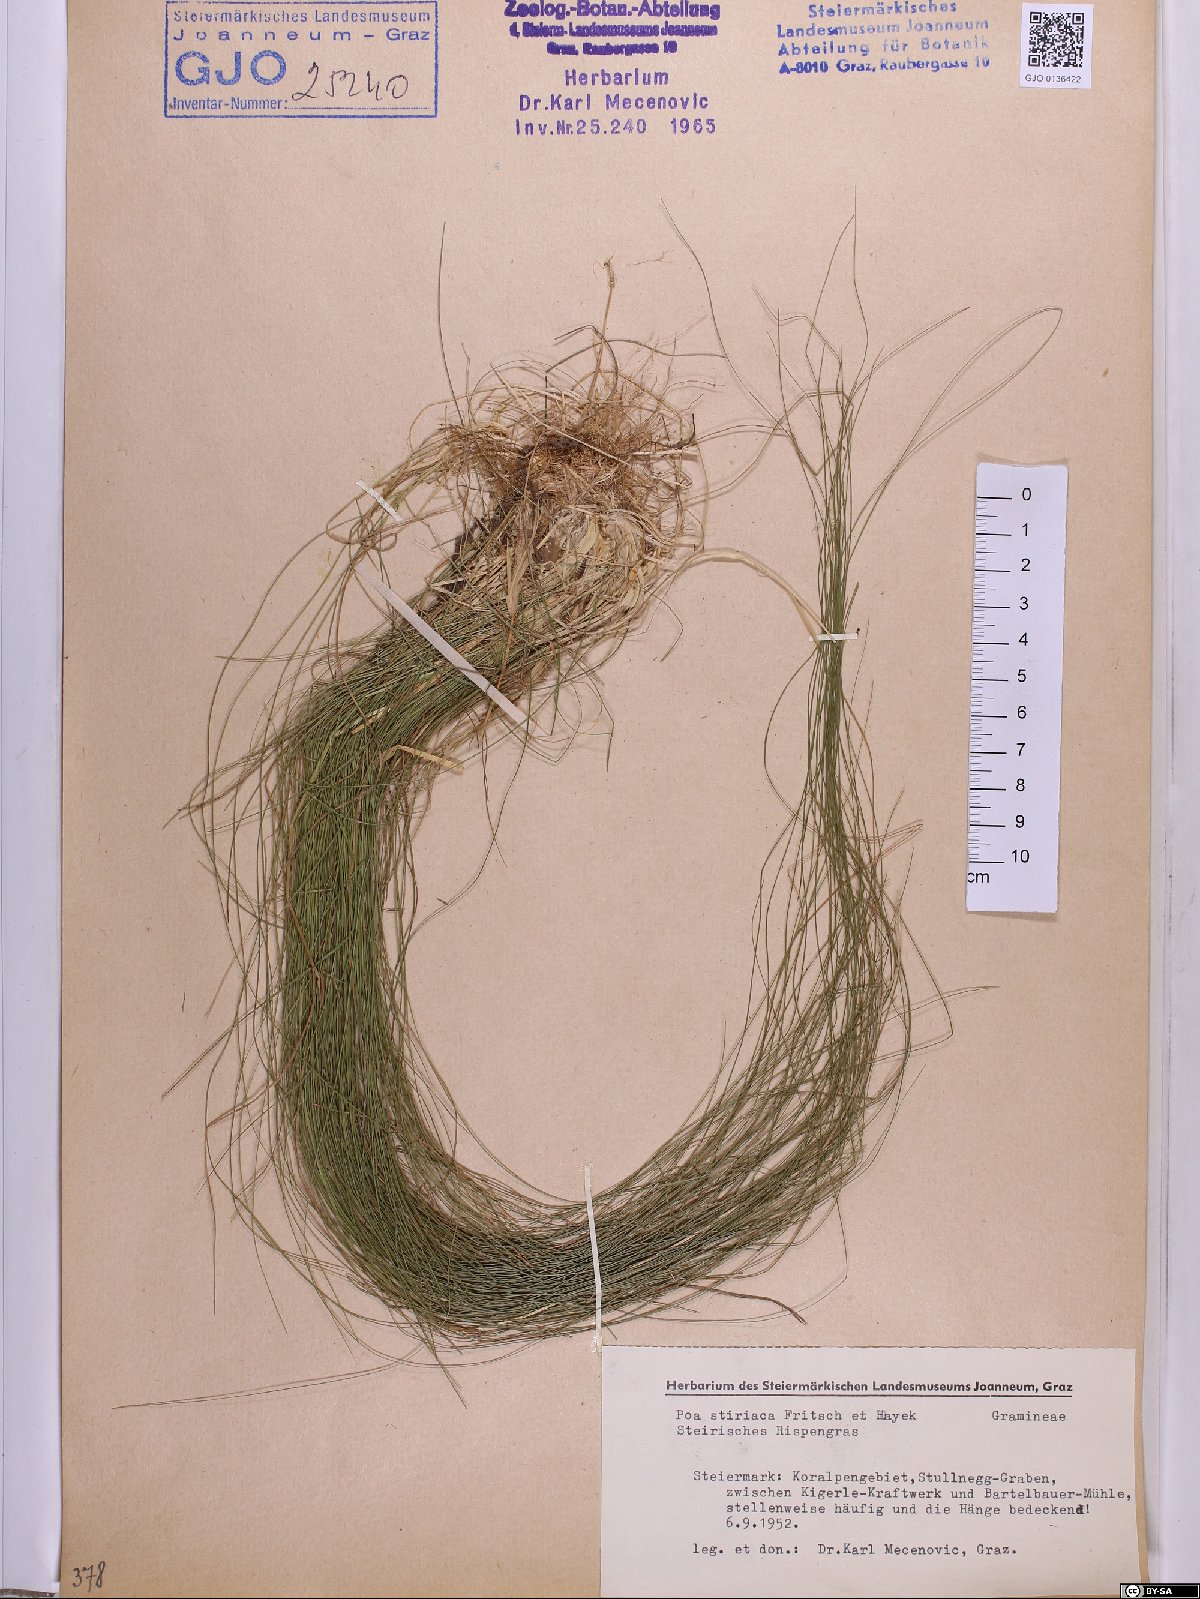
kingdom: Plantae
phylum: Tracheophyta
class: Liliopsida
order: Poales
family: Poaceae
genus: Poa
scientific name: Poa stiriaca
